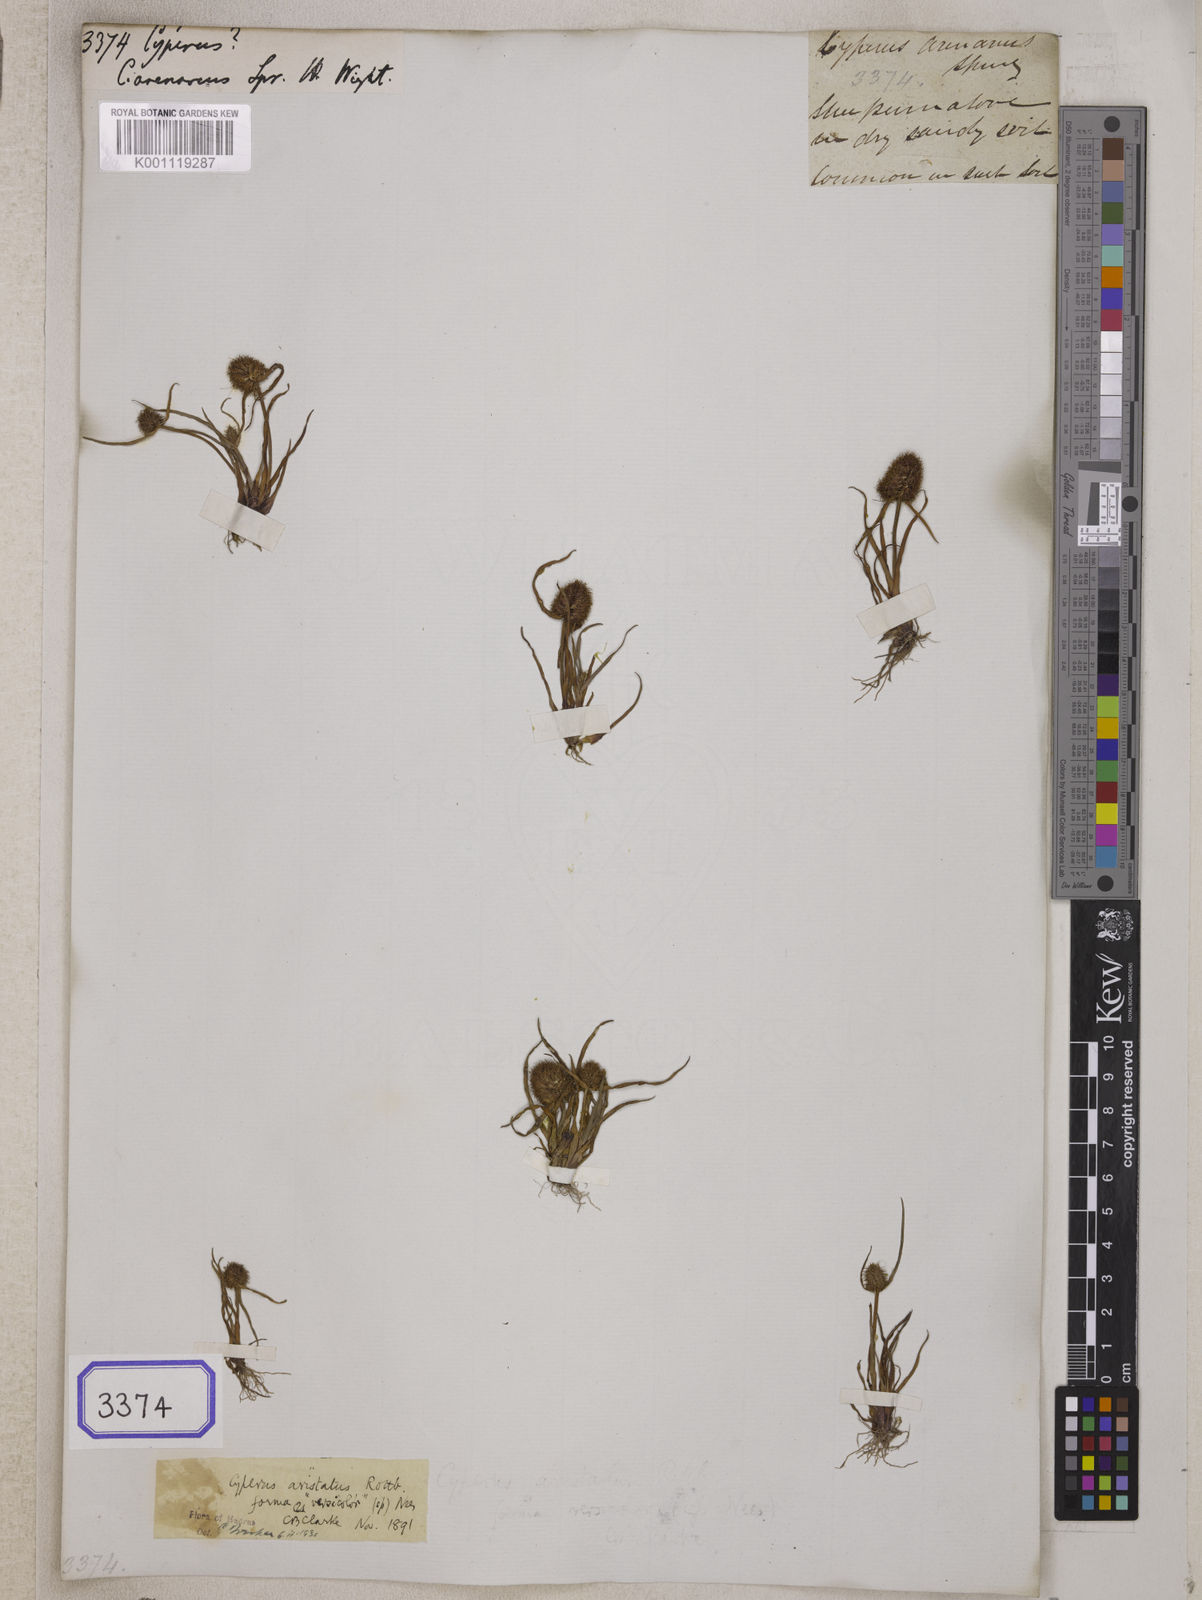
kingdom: Plantae
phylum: Tracheophyta
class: Liliopsida
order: Poales
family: Cyperaceae
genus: Cyperus
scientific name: Cyperus
